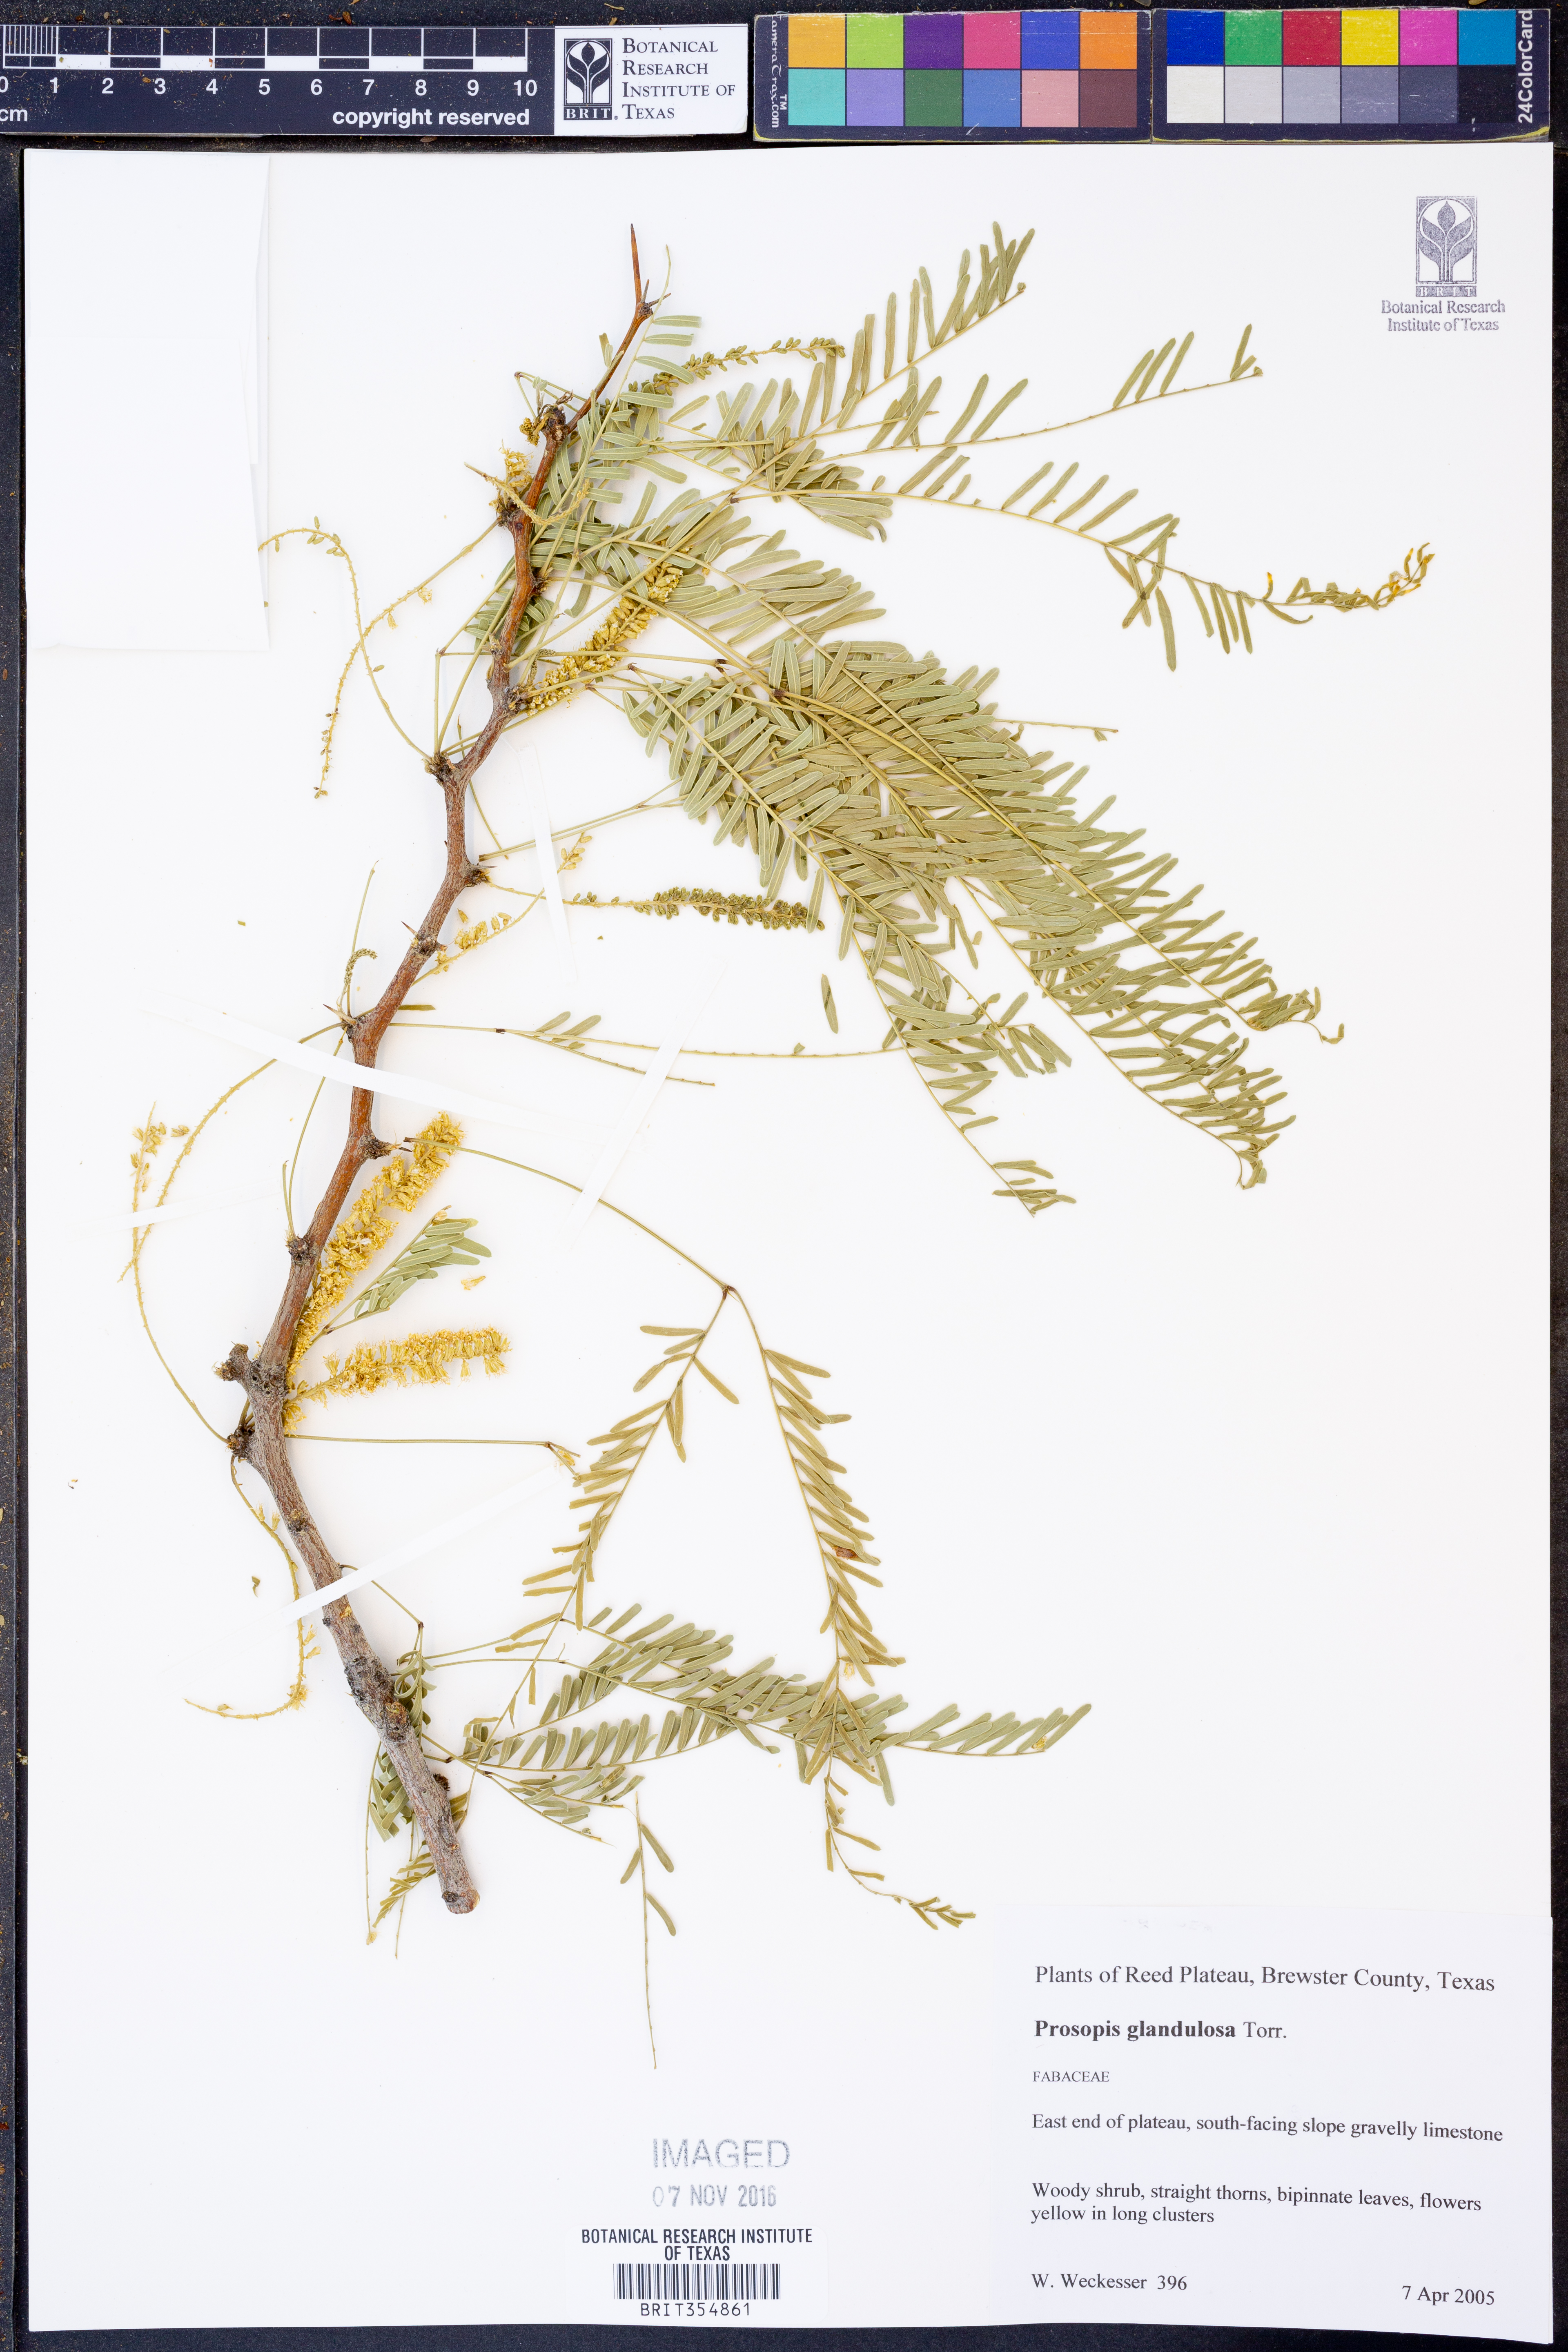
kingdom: Plantae
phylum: Tracheophyta
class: Magnoliopsida
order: Fabales
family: Fabaceae
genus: Prosopis
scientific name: Prosopis glandulosa
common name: Honey mesquite
